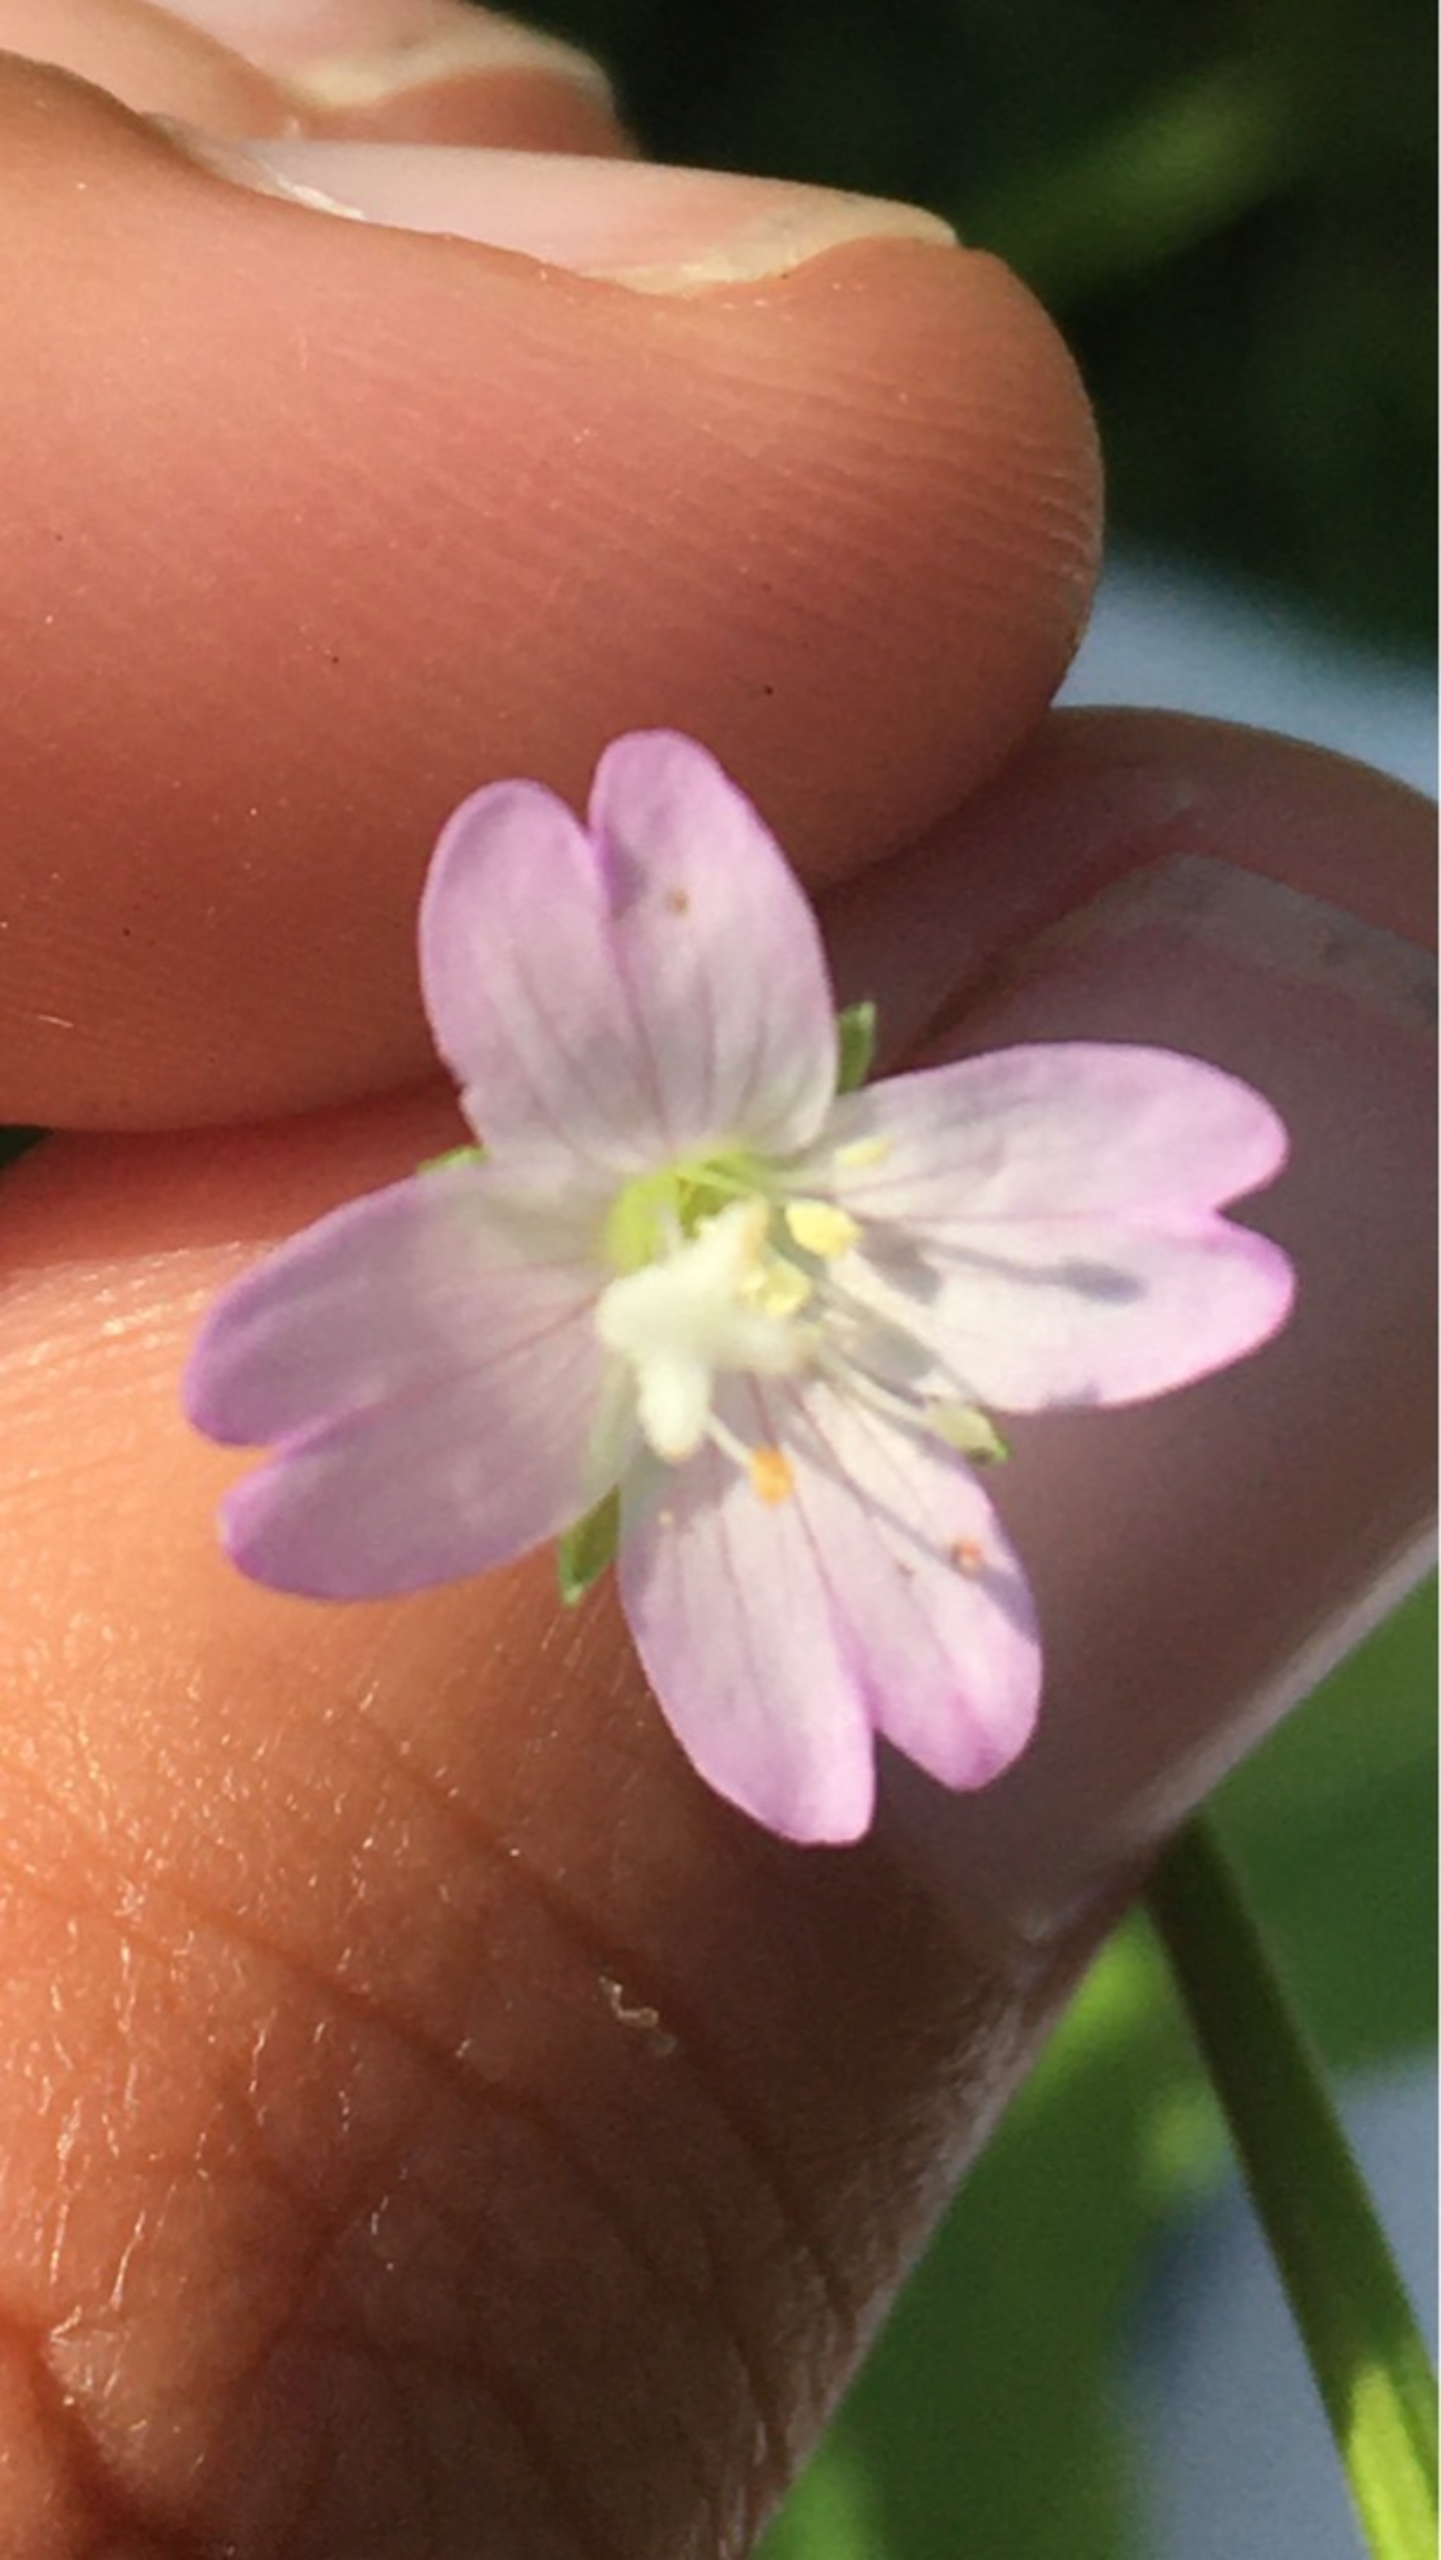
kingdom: Plantae
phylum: Tracheophyta
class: Magnoliopsida
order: Myrtales
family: Onagraceae
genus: Epilobium
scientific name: Epilobium montanum
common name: Glat dueurt
